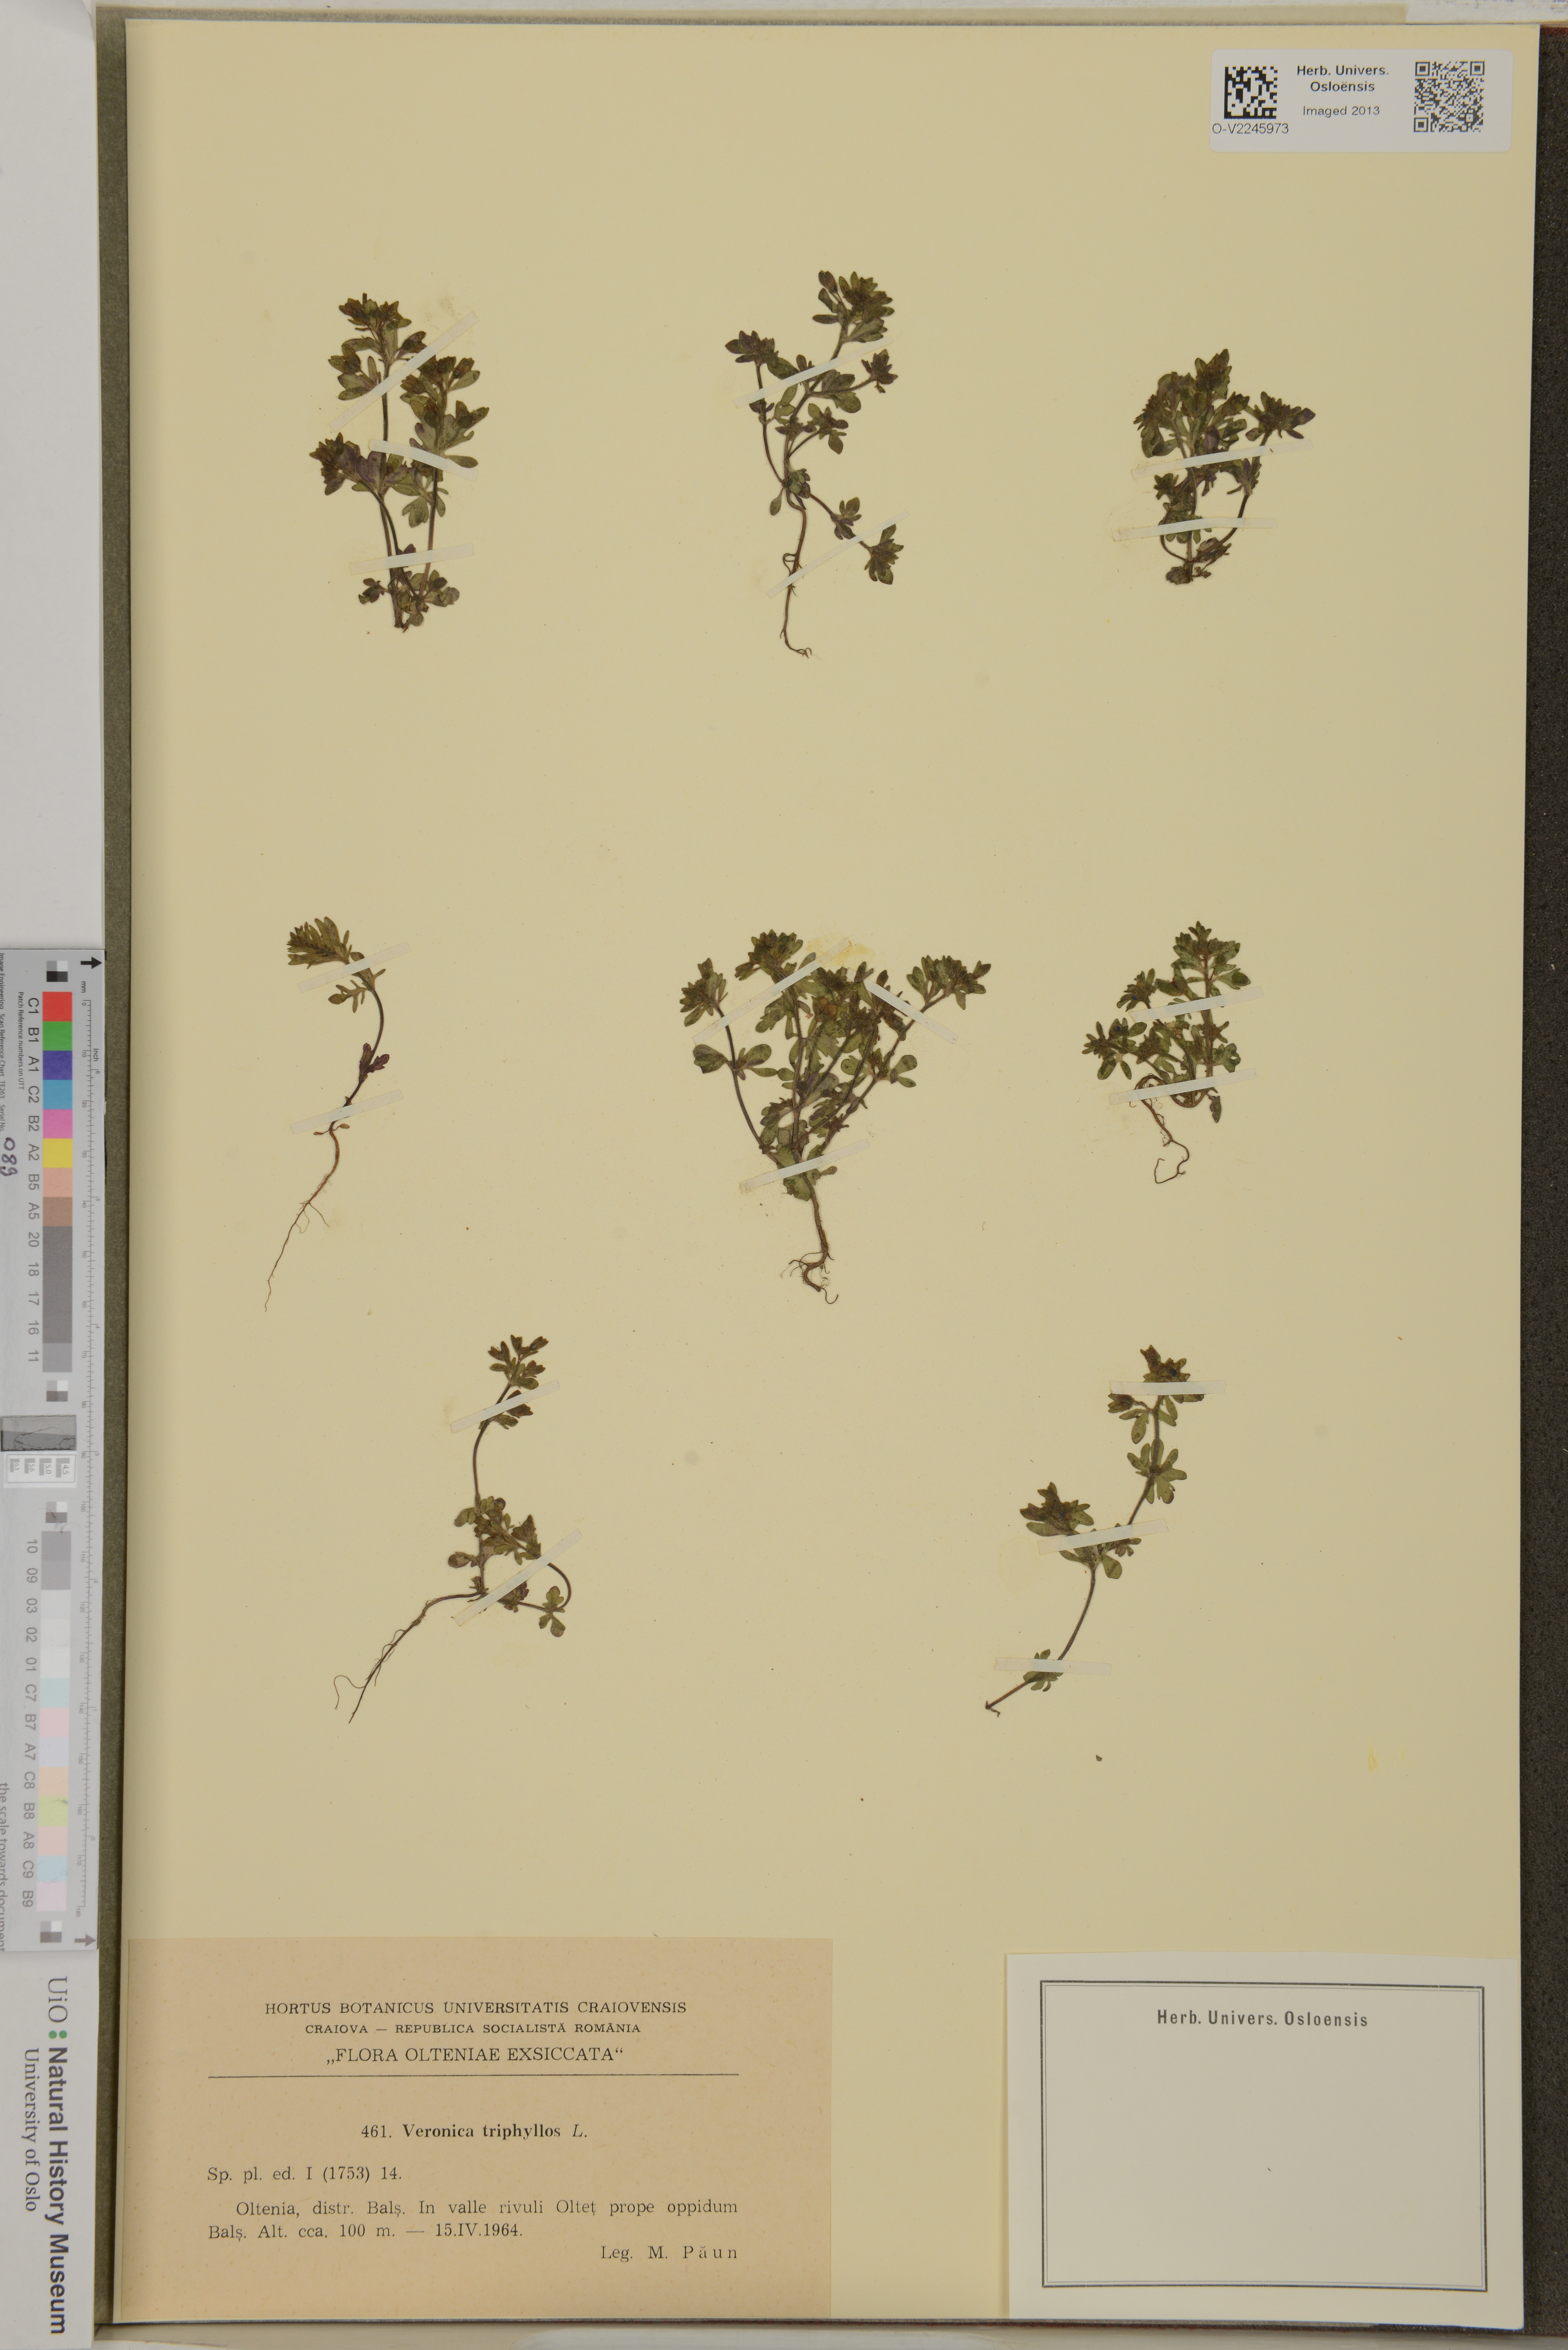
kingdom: Plantae
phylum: Tracheophyta
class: Magnoliopsida
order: Lamiales
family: Plantaginaceae
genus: Veronica
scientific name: Veronica triphyllos
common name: Fingered speedwell
